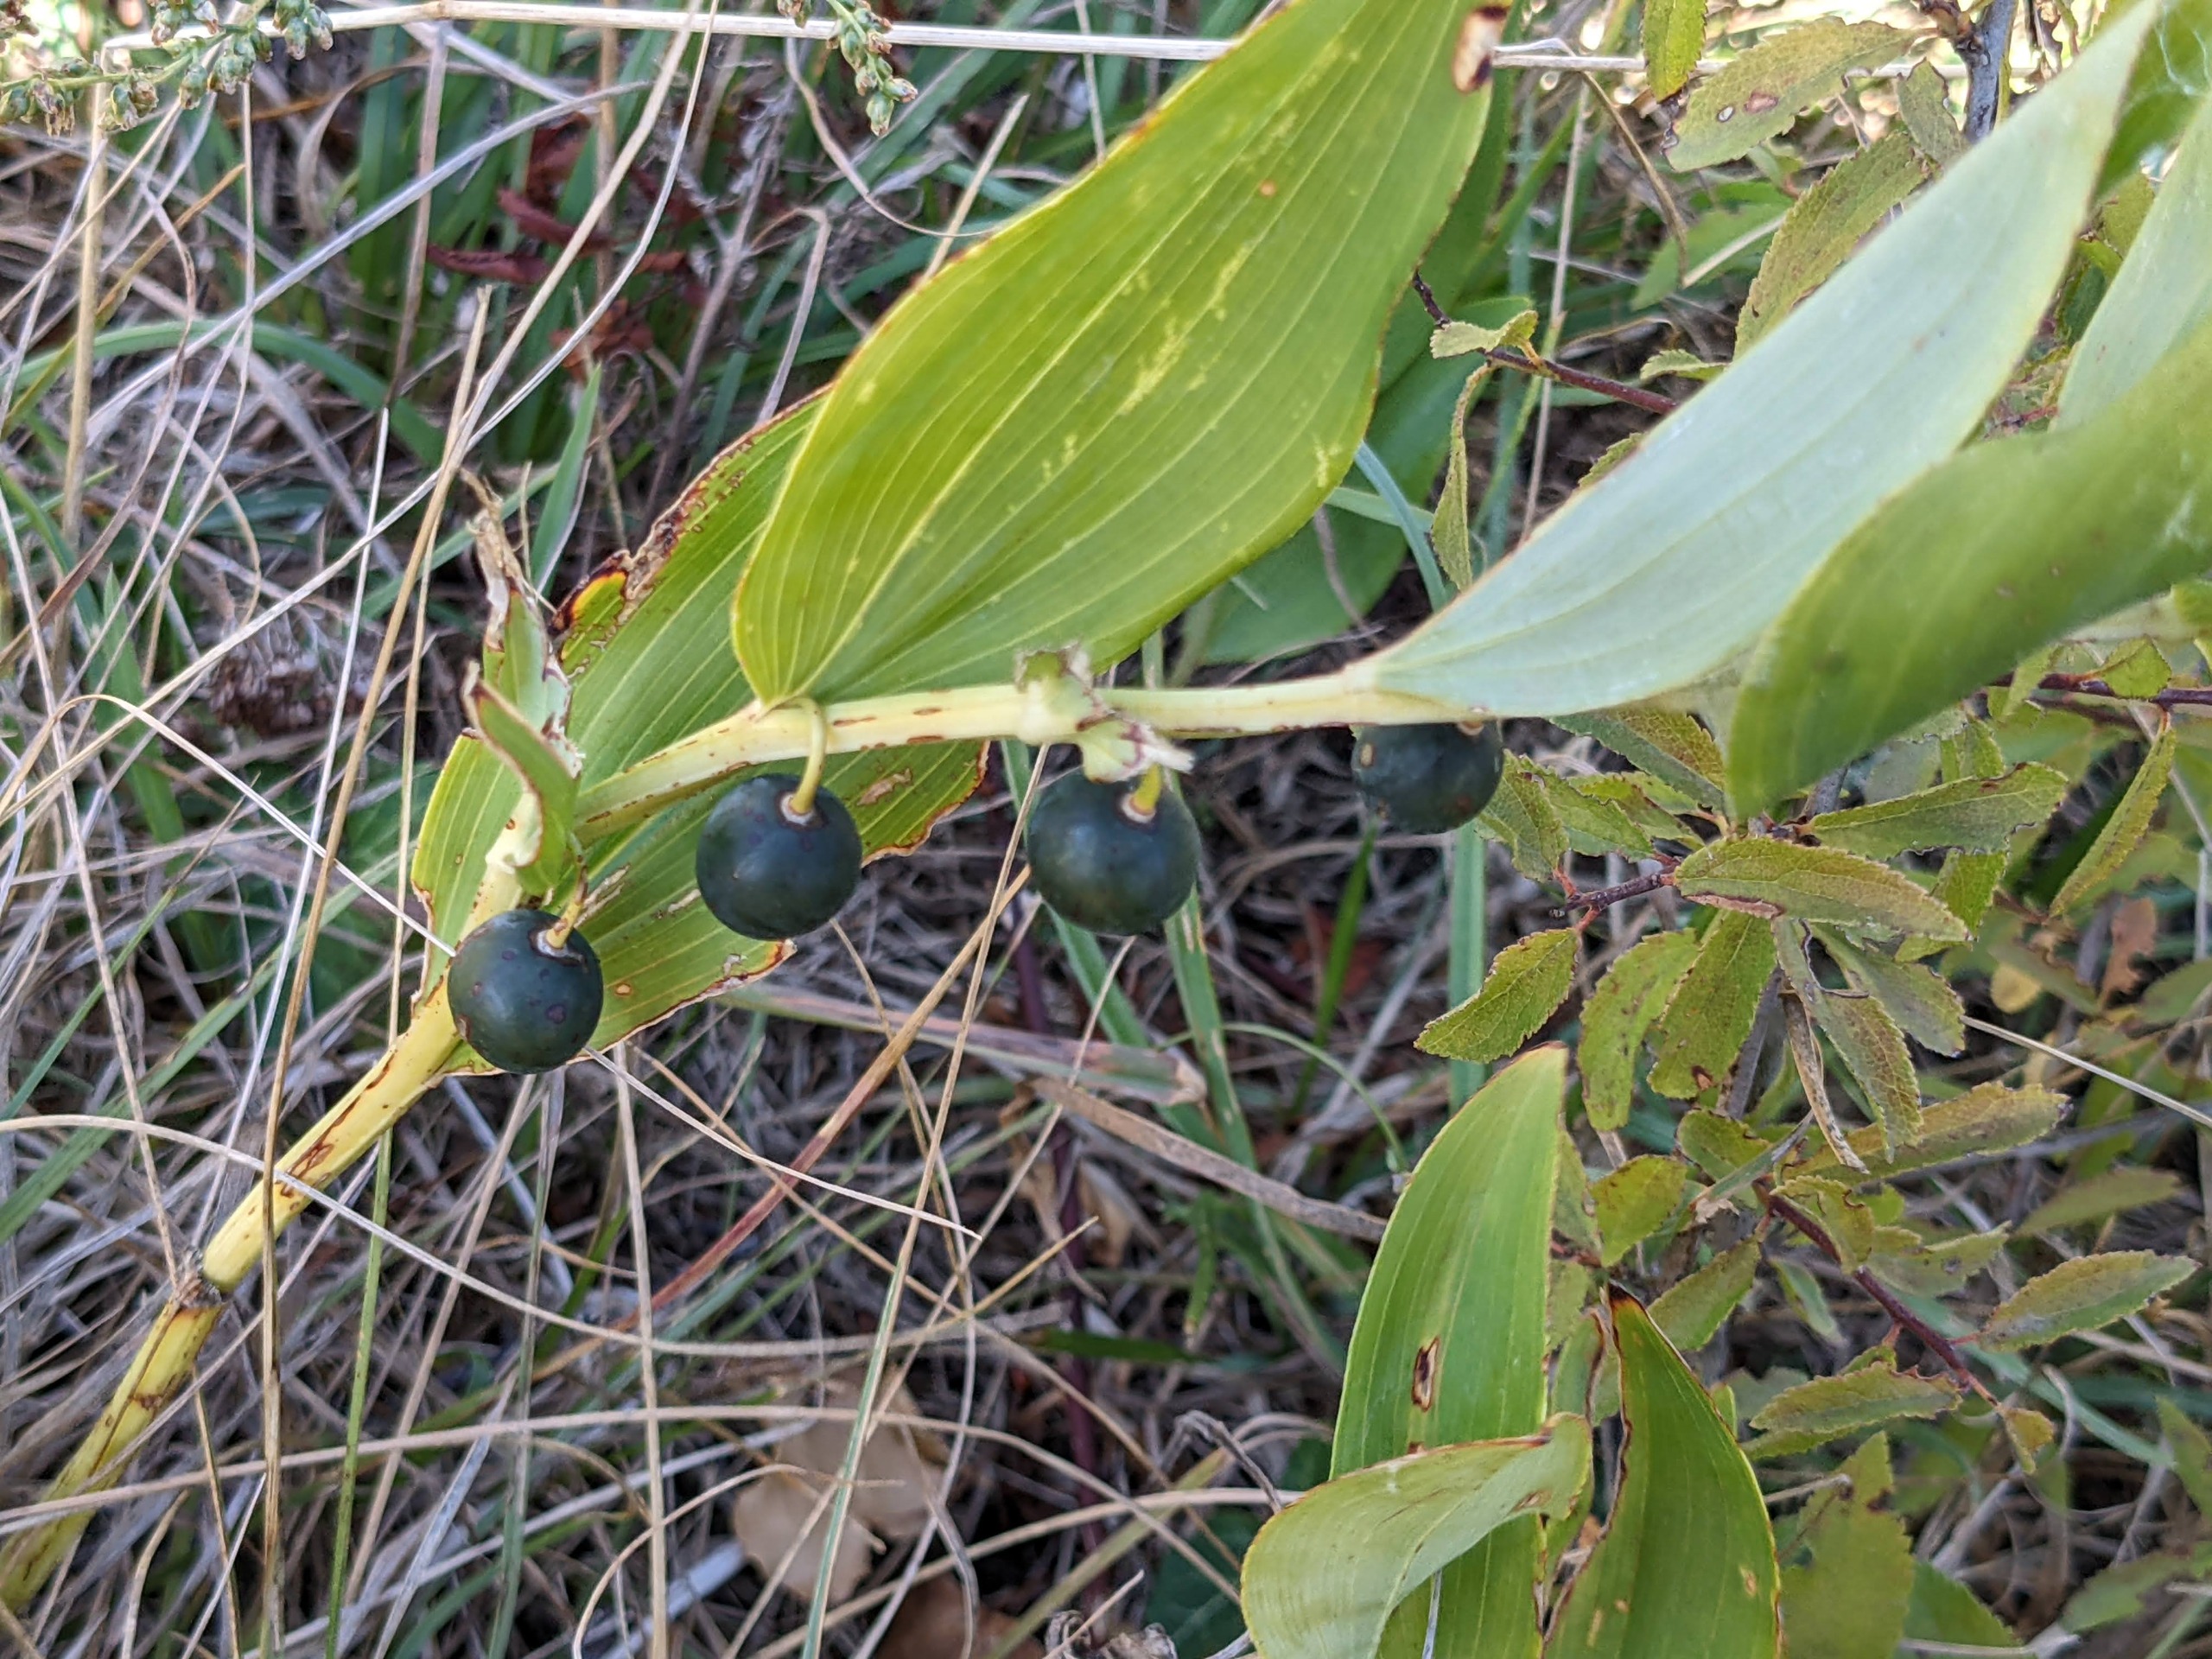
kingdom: Plantae
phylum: Tracheophyta
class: Liliopsida
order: Asparagales
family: Asparagaceae
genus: Polygonatum
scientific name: Polygonatum odoratum
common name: Kantet konval
